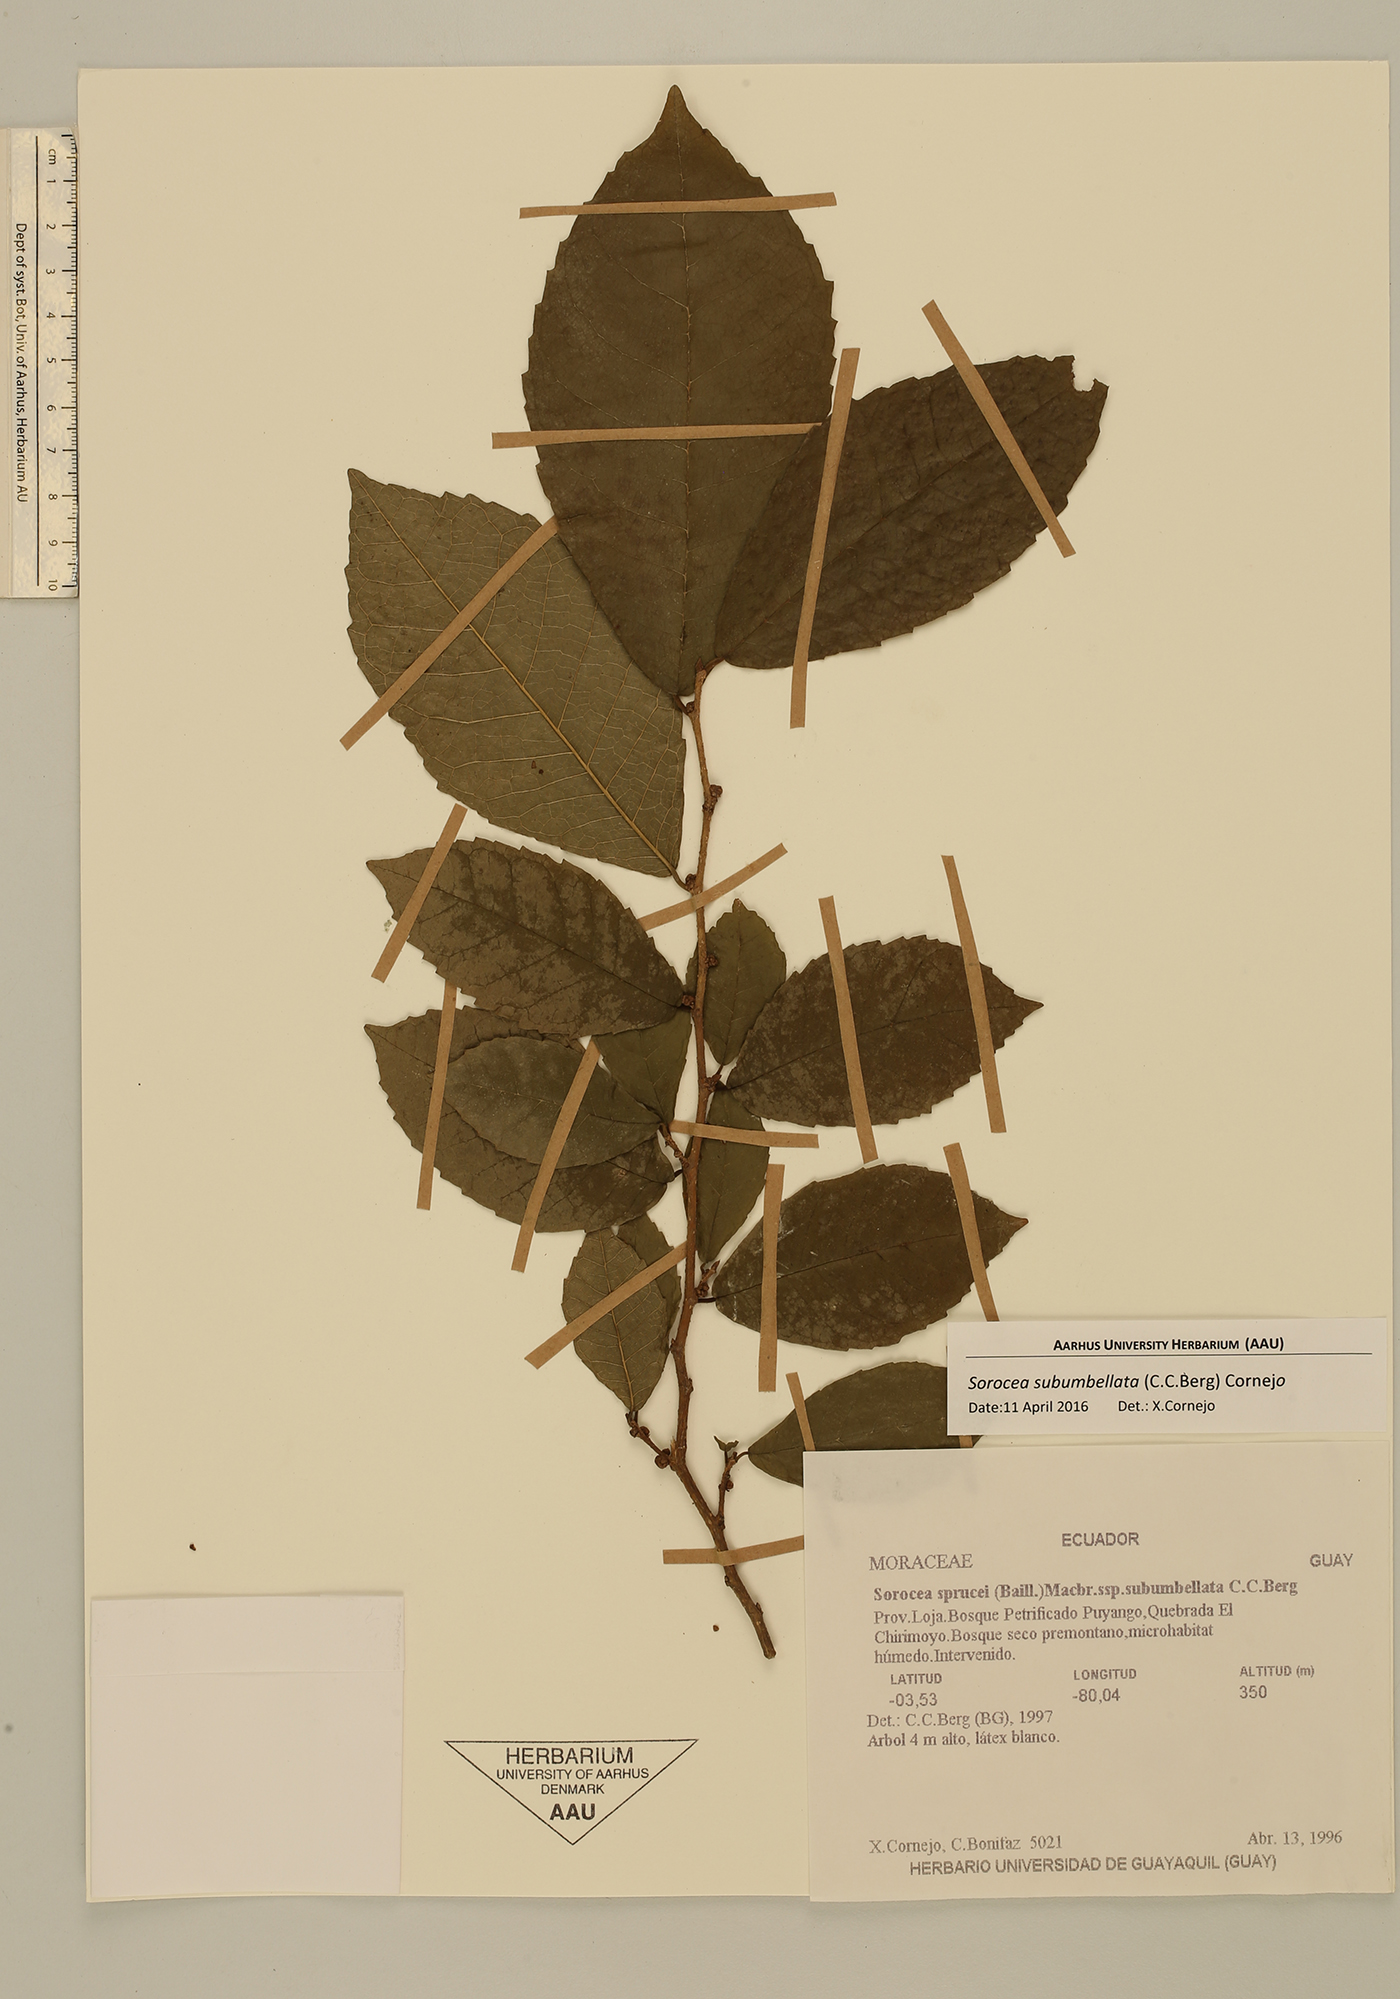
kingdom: Plantae
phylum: Tracheophyta
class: Magnoliopsida
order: Rosales
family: Moraceae
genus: Sorocea
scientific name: Sorocea subumbellata
